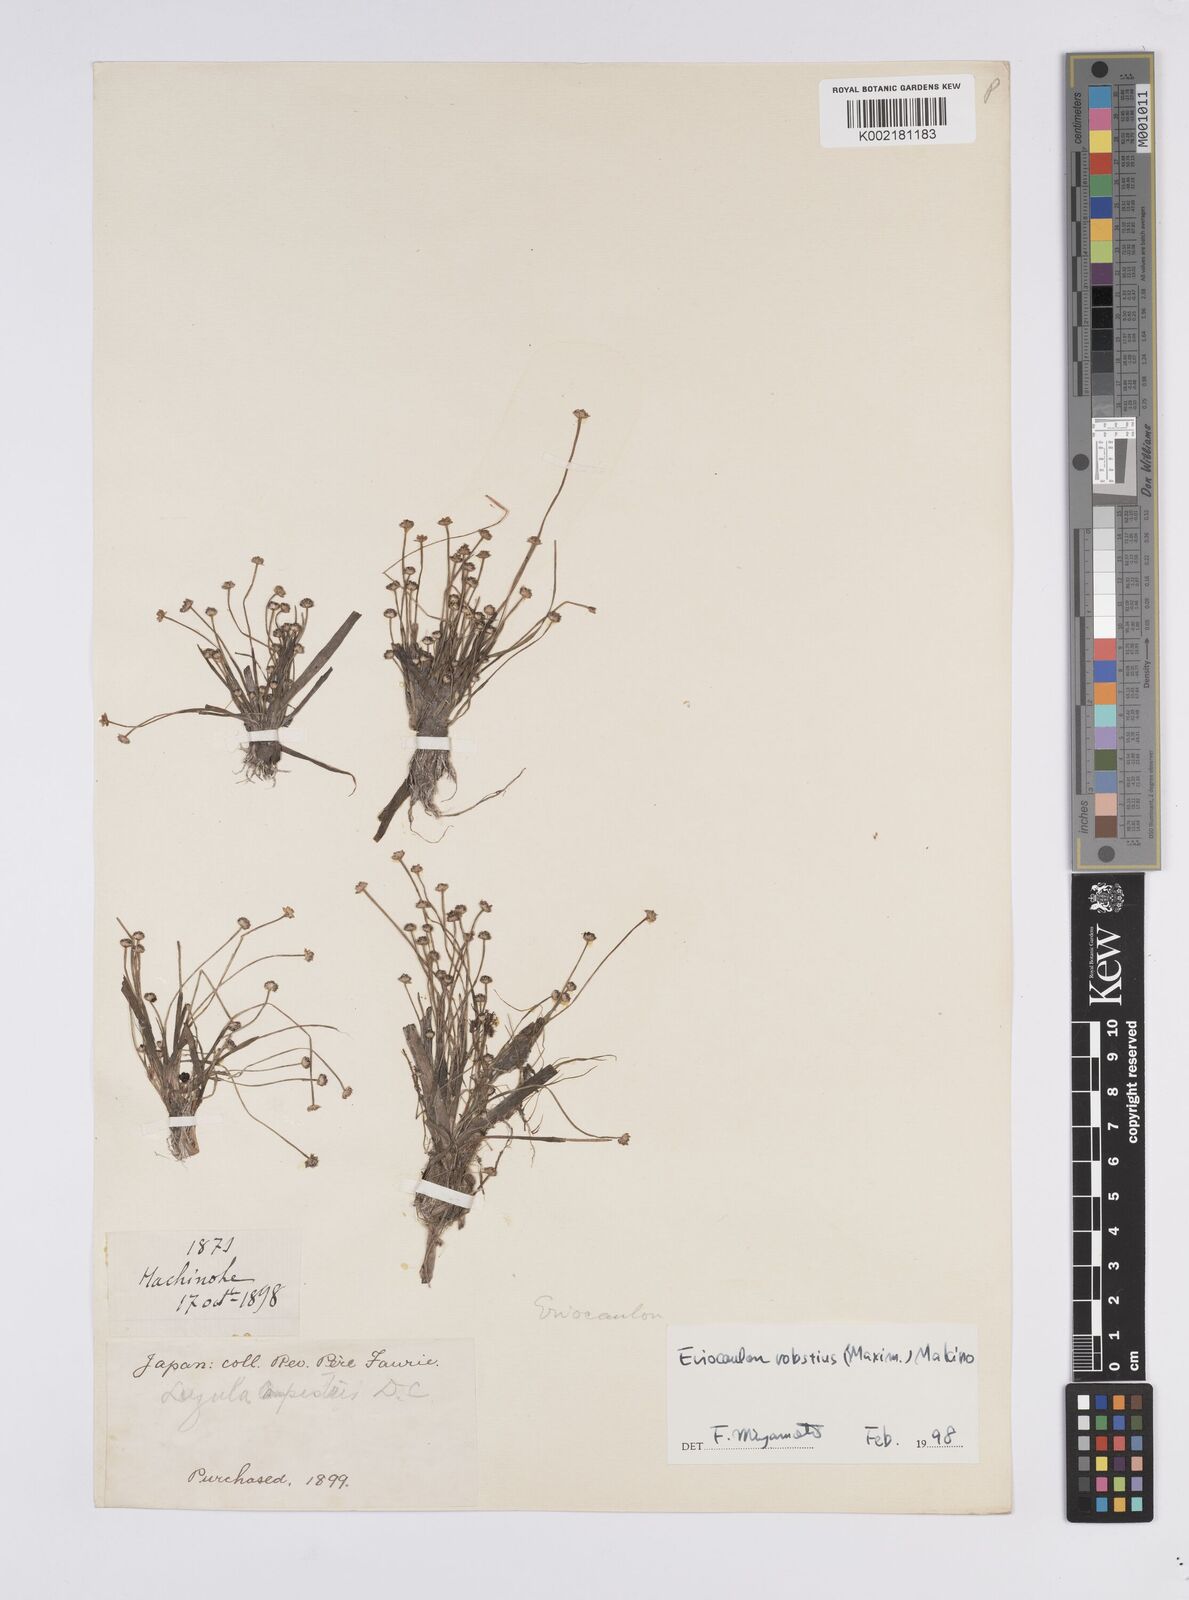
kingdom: Plantae
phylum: Tracheophyta
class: Liliopsida
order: Poales
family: Eriocaulaceae
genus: Eriocaulon
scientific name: Eriocaulon alpestre
